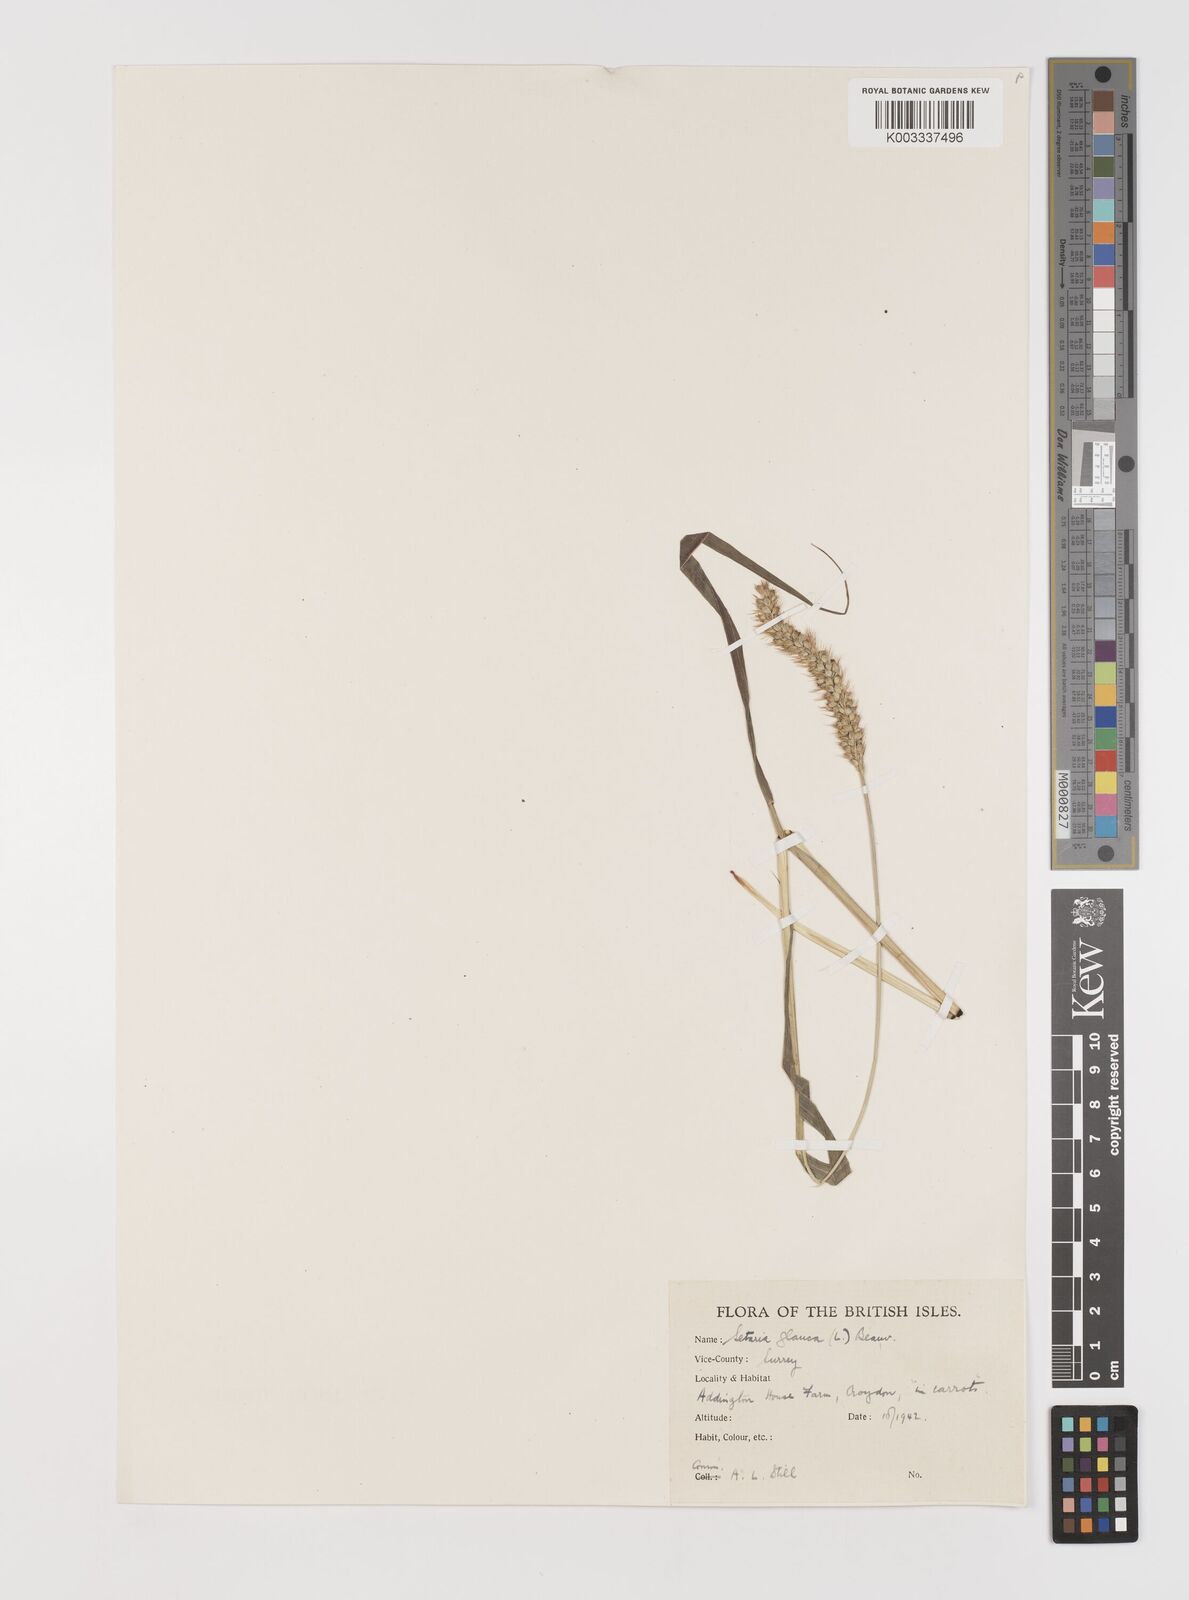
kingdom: Plantae
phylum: Tracheophyta
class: Liliopsida
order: Poales
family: Poaceae
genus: Setaria
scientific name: Setaria pumila
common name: Yellow bristle-grass
